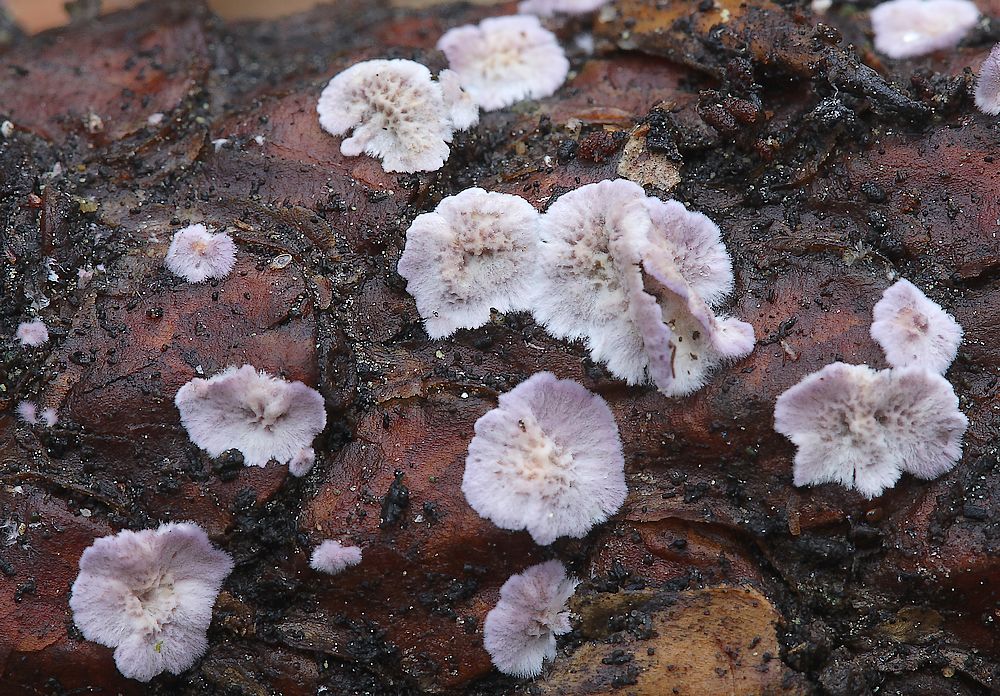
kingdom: Fungi
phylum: Basidiomycota
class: Agaricomycetes
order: Polyporales
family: Polyporaceae
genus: Trichaptum
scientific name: Trichaptum
